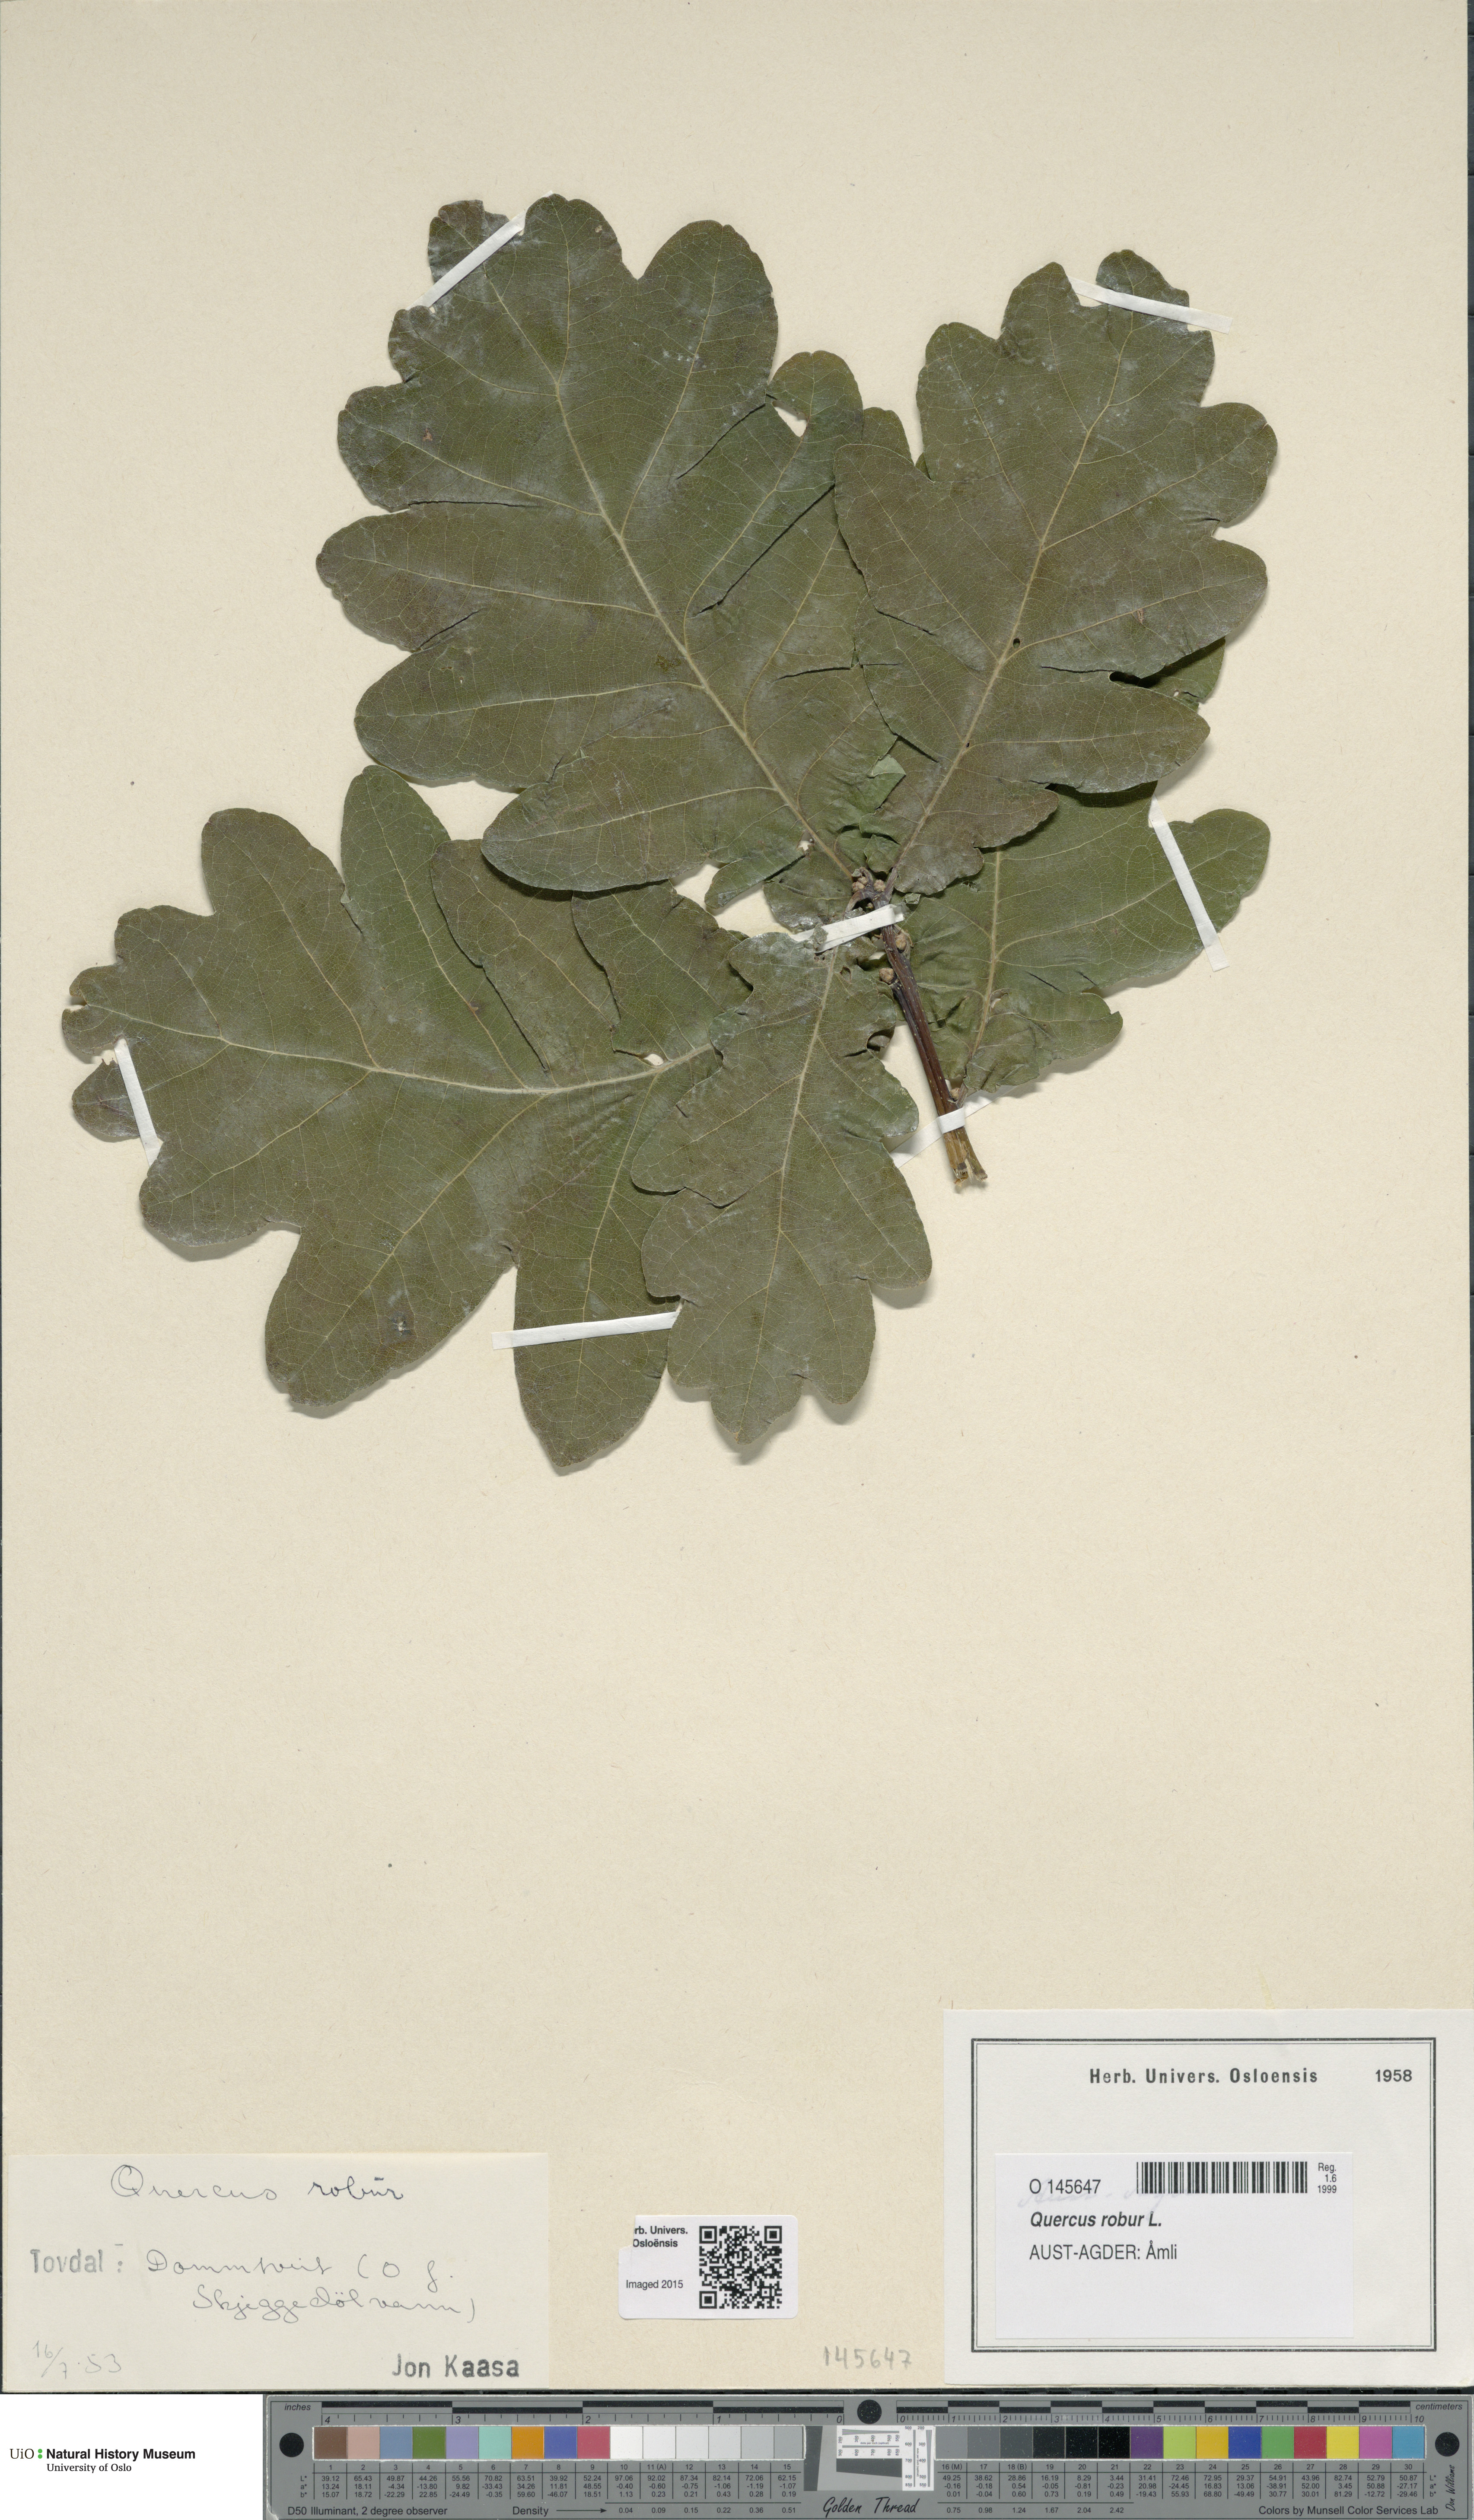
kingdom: Plantae
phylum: Tracheophyta
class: Magnoliopsida
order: Fagales
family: Fagaceae
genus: Quercus
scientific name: Quercus robur
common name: Pedunculate oak
